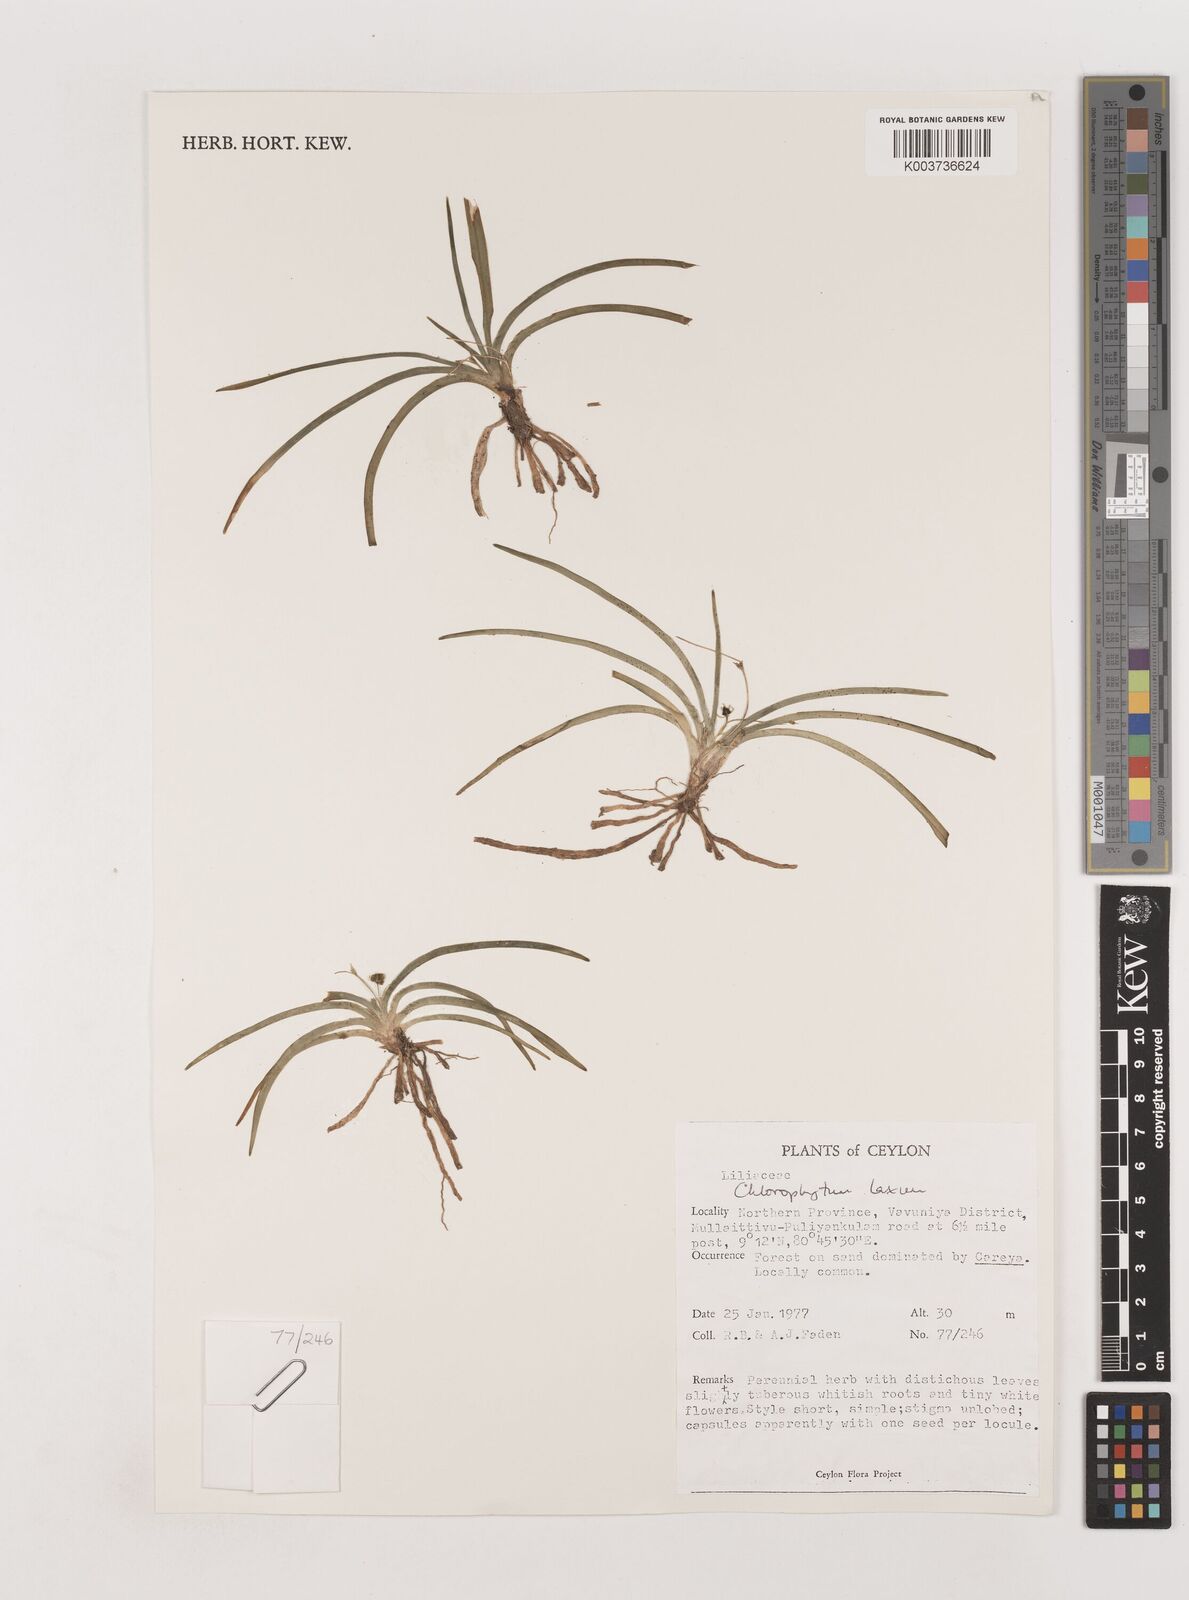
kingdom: Plantae
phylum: Tracheophyta
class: Liliopsida
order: Asparagales
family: Asparagaceae
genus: Chlorophytum
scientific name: Chlorophytum laxum
